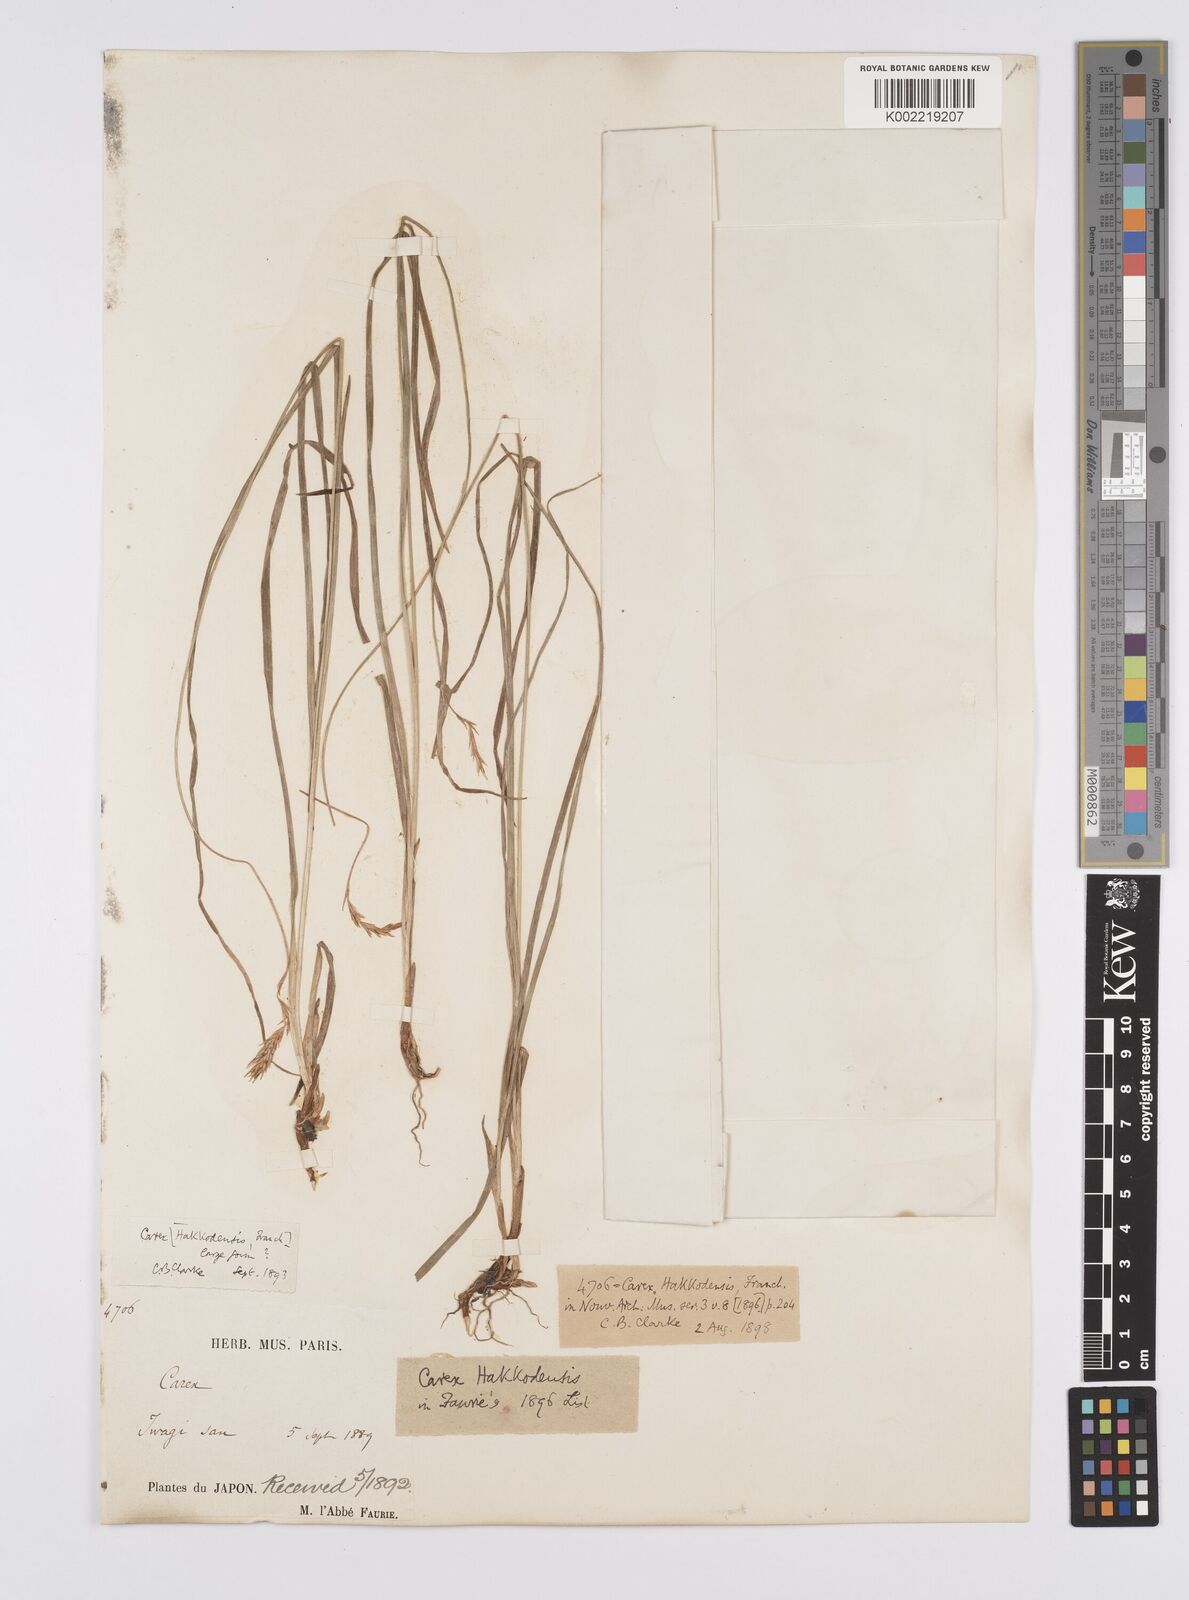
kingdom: Plantae
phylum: Tracheophyta
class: Liliopsida
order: Poales
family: Cyperaceae
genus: Carex
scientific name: Carex hakkodensis
